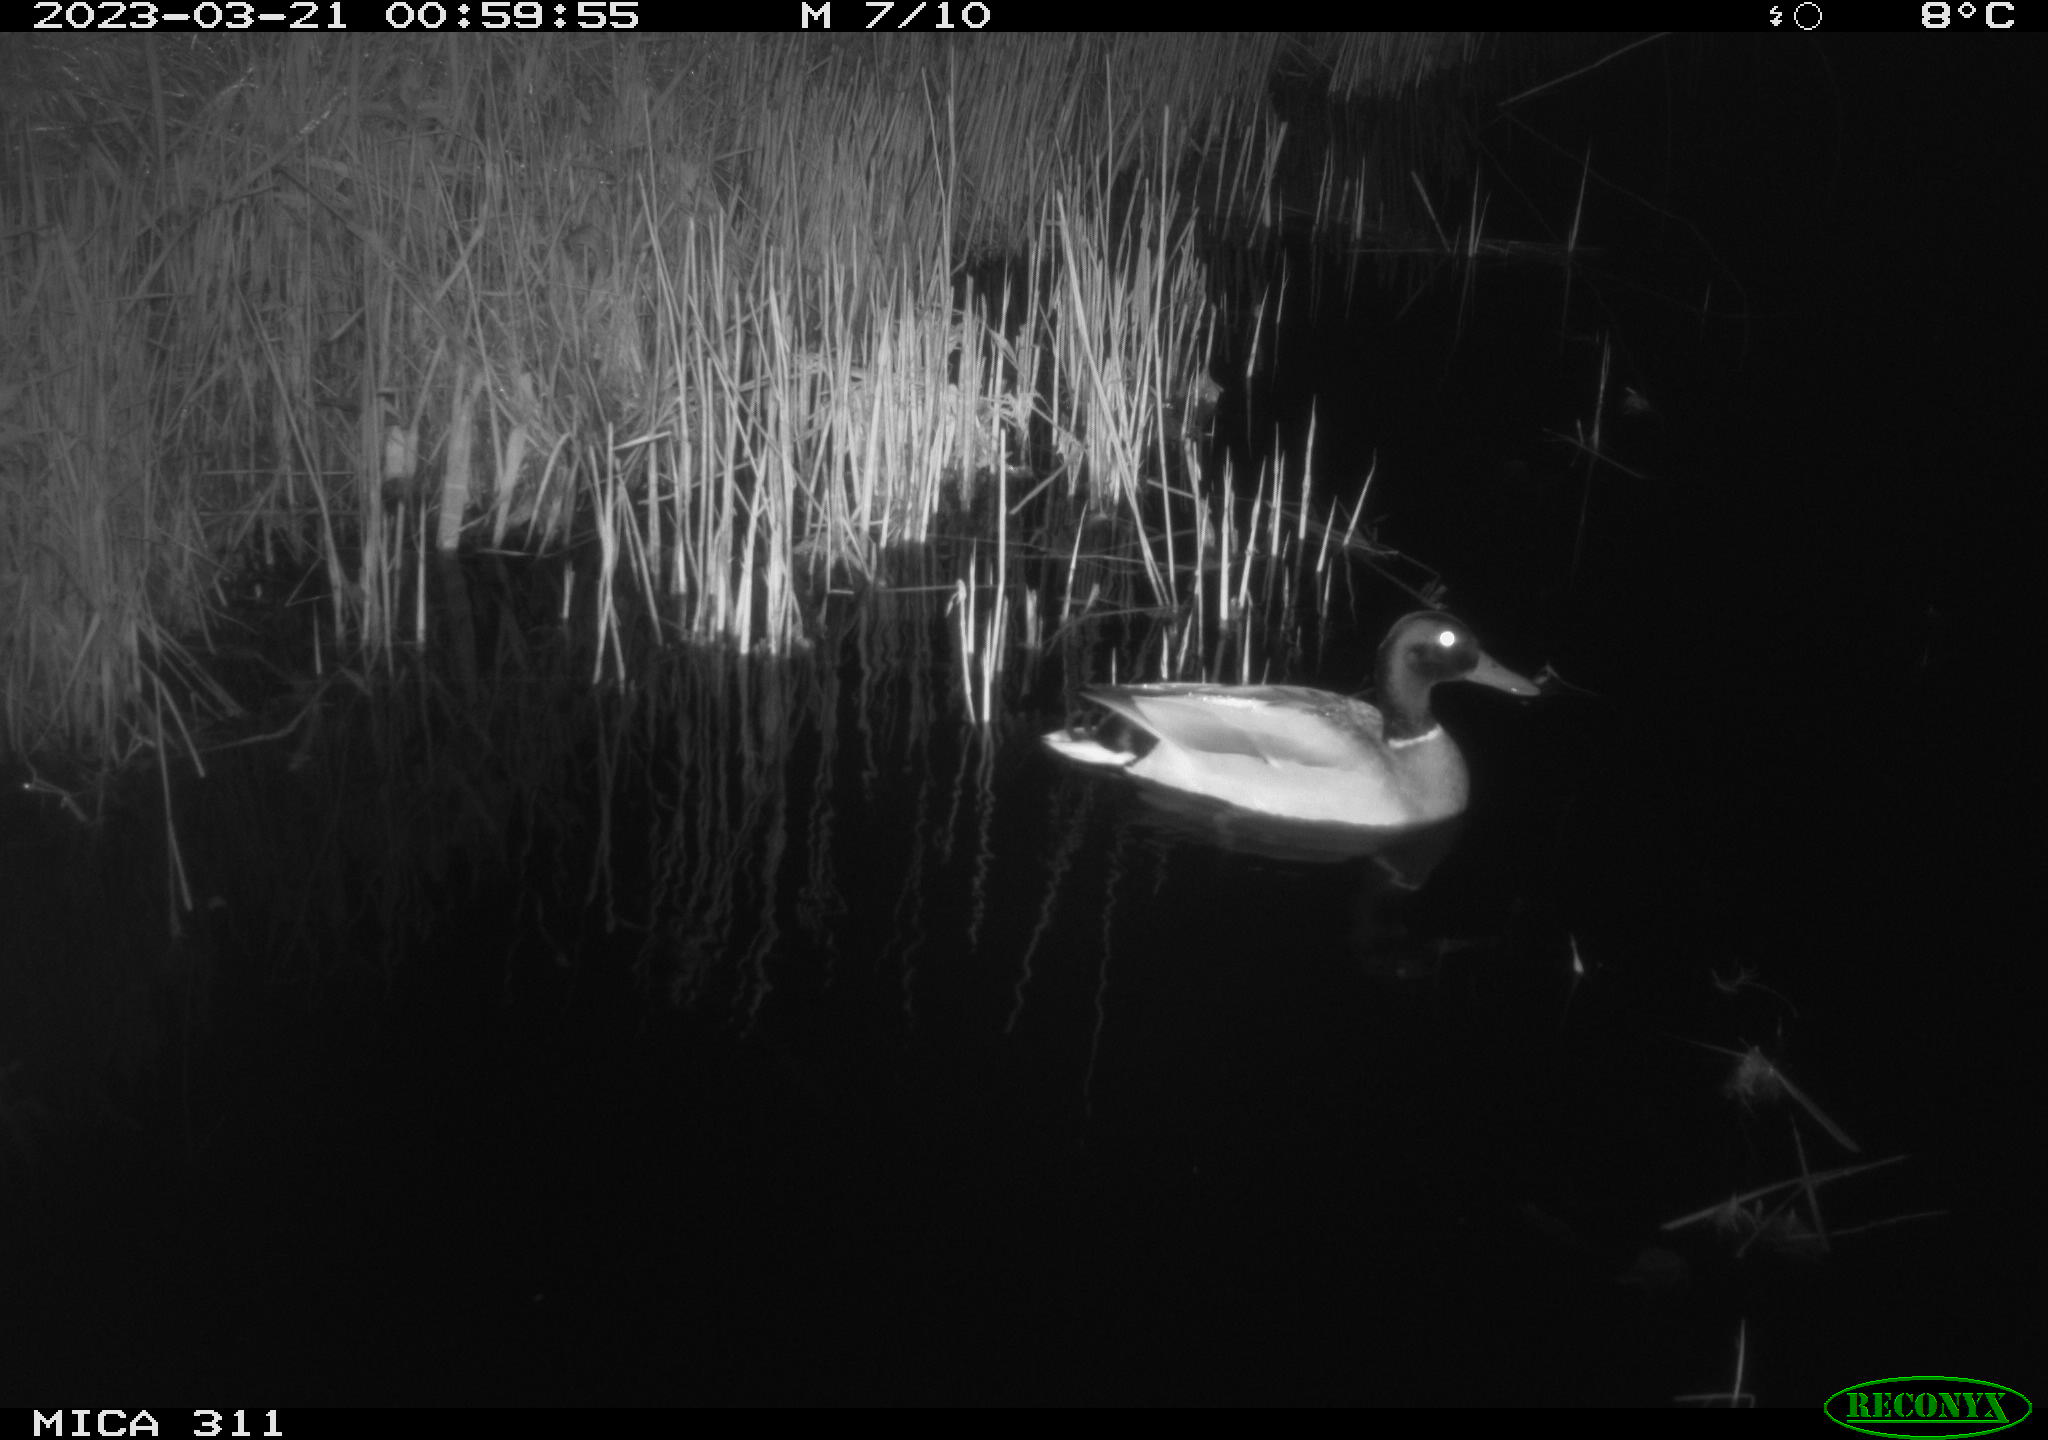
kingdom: Animalia
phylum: Chordata
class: Aves
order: Anseriformes
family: Anatidae
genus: Anas
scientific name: Anas
